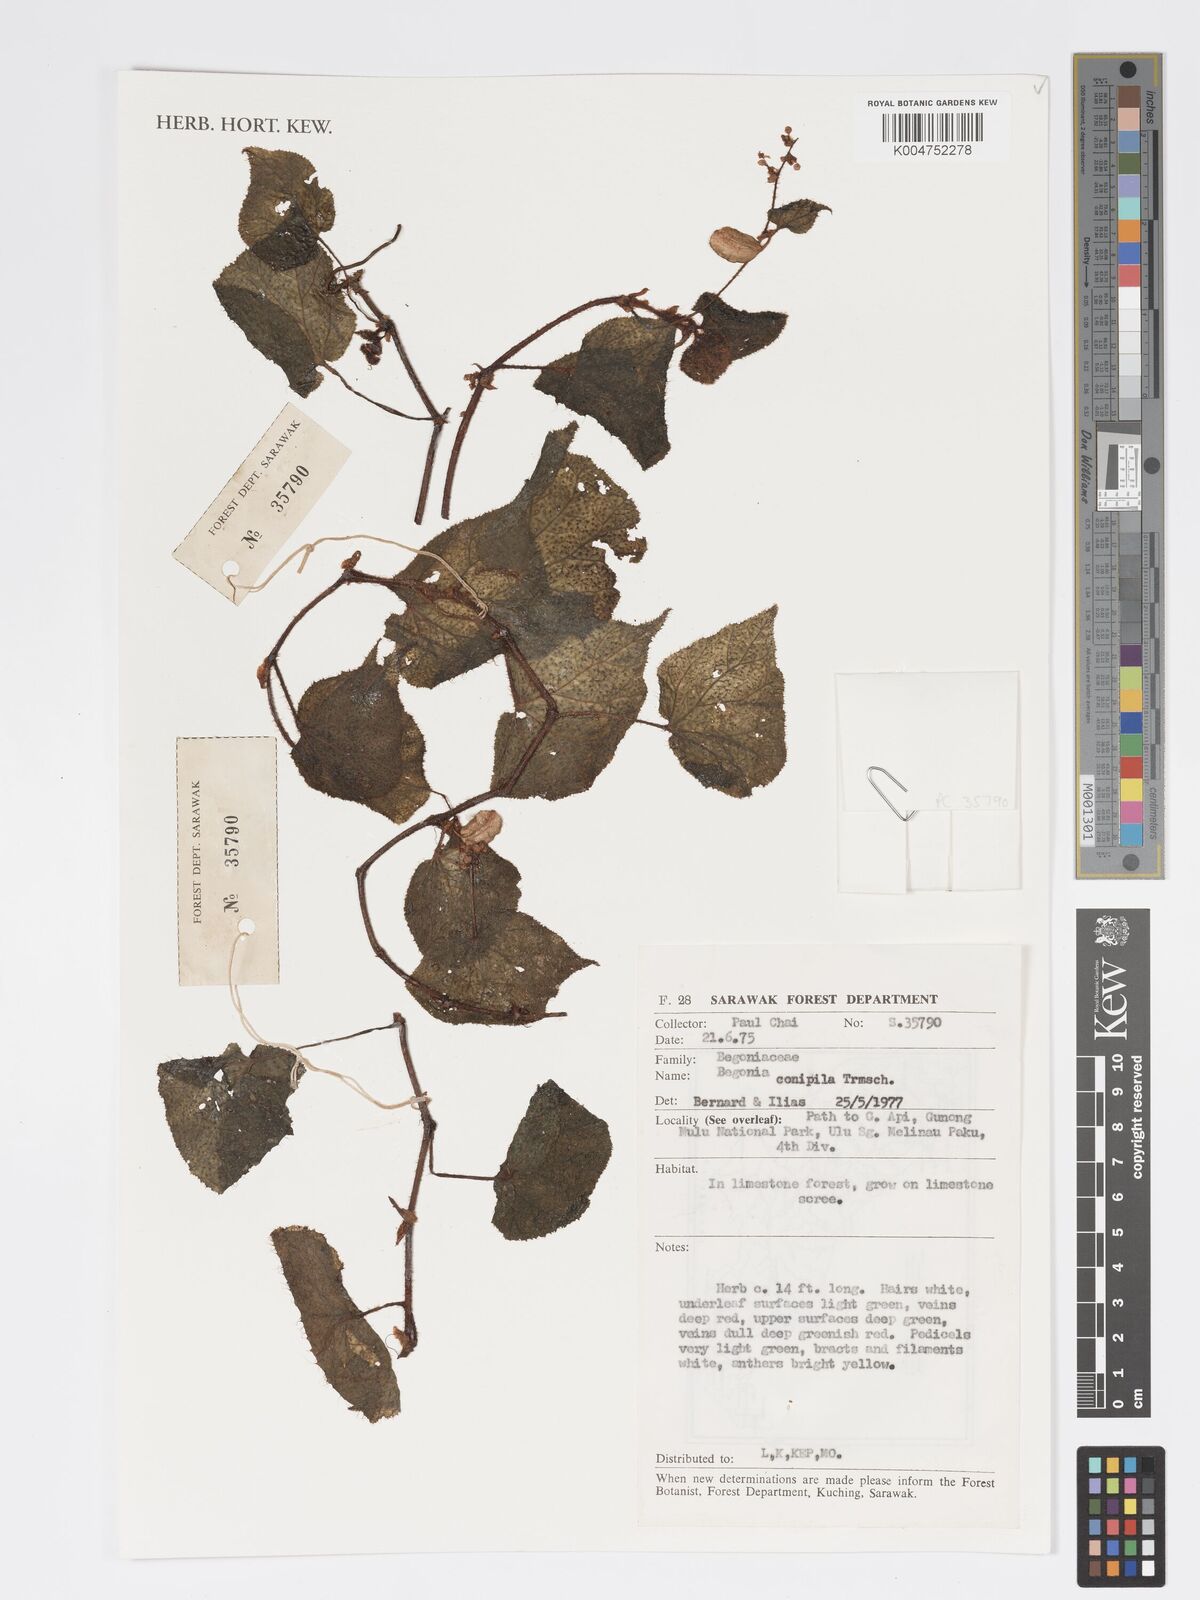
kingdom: Plantae
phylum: Tracheophyta
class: Magnoliopsida
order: Cucurbitales
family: Begoniaceae
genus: Begonia
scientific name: Begonia conipila
